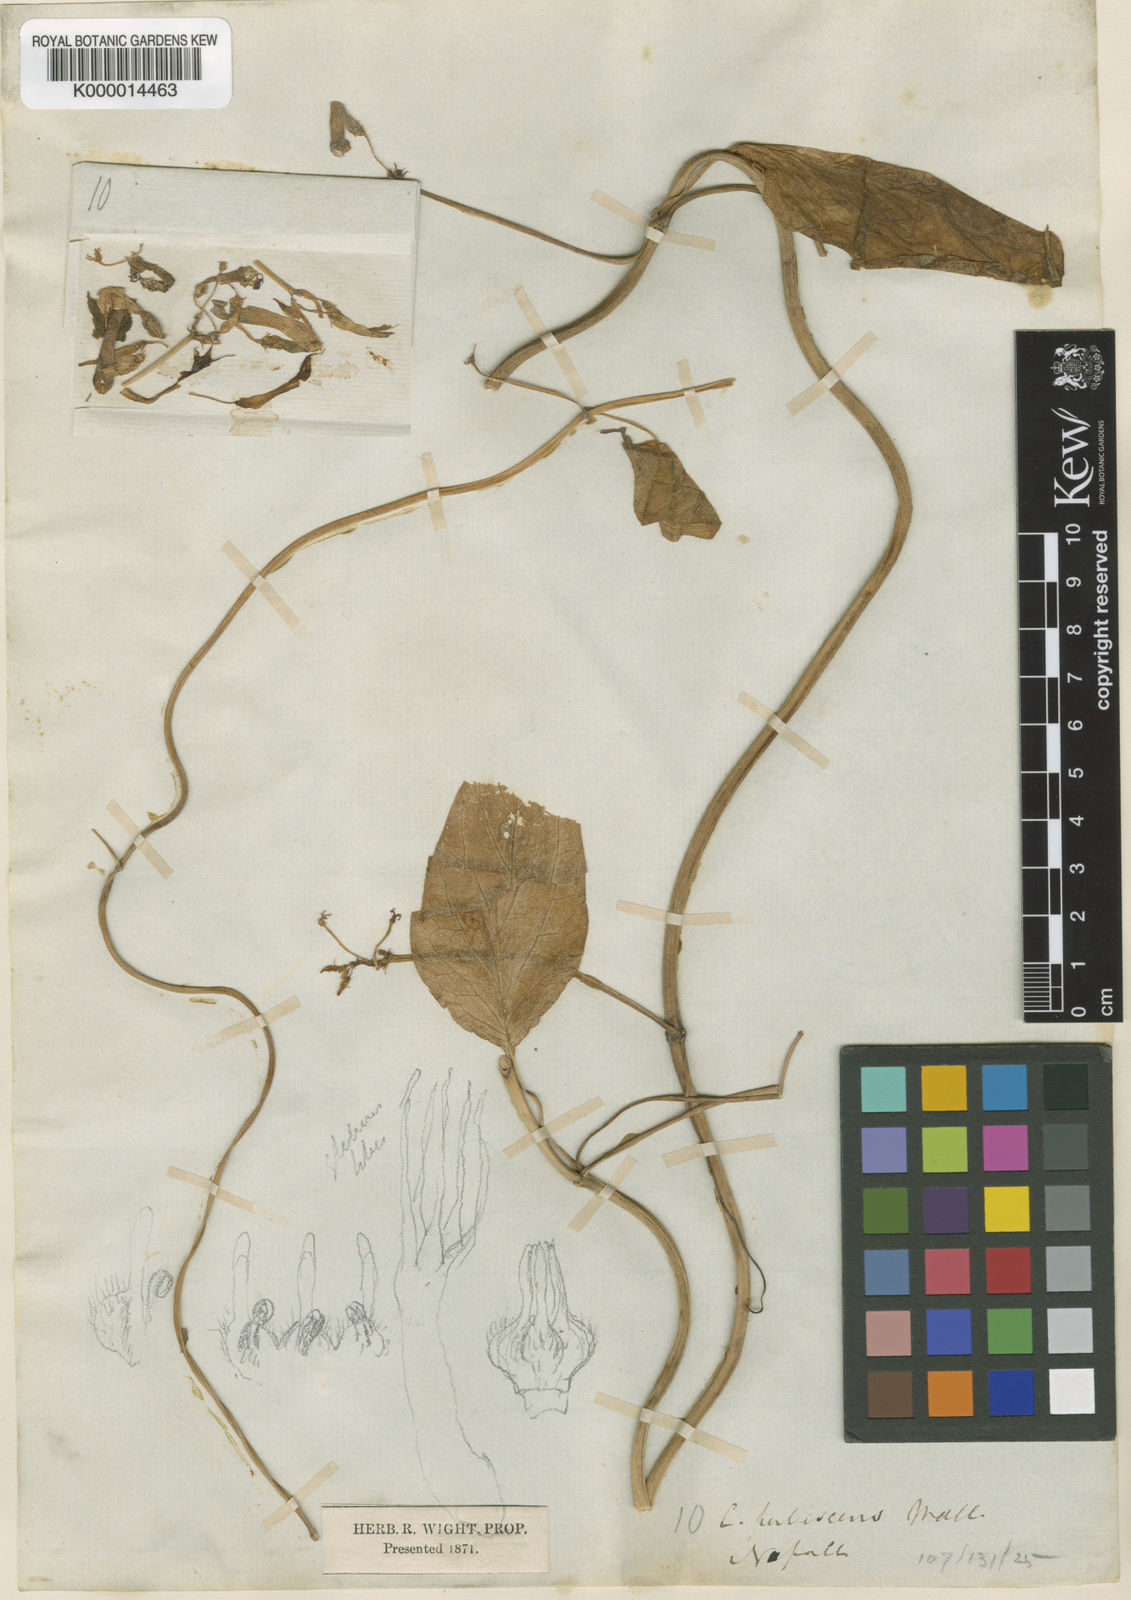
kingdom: Plantae
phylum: Tracheophyta
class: Magnoliopsida
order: Gentianales
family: Apocynaceae
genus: Ceropegia
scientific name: Ceropegia pubescens
